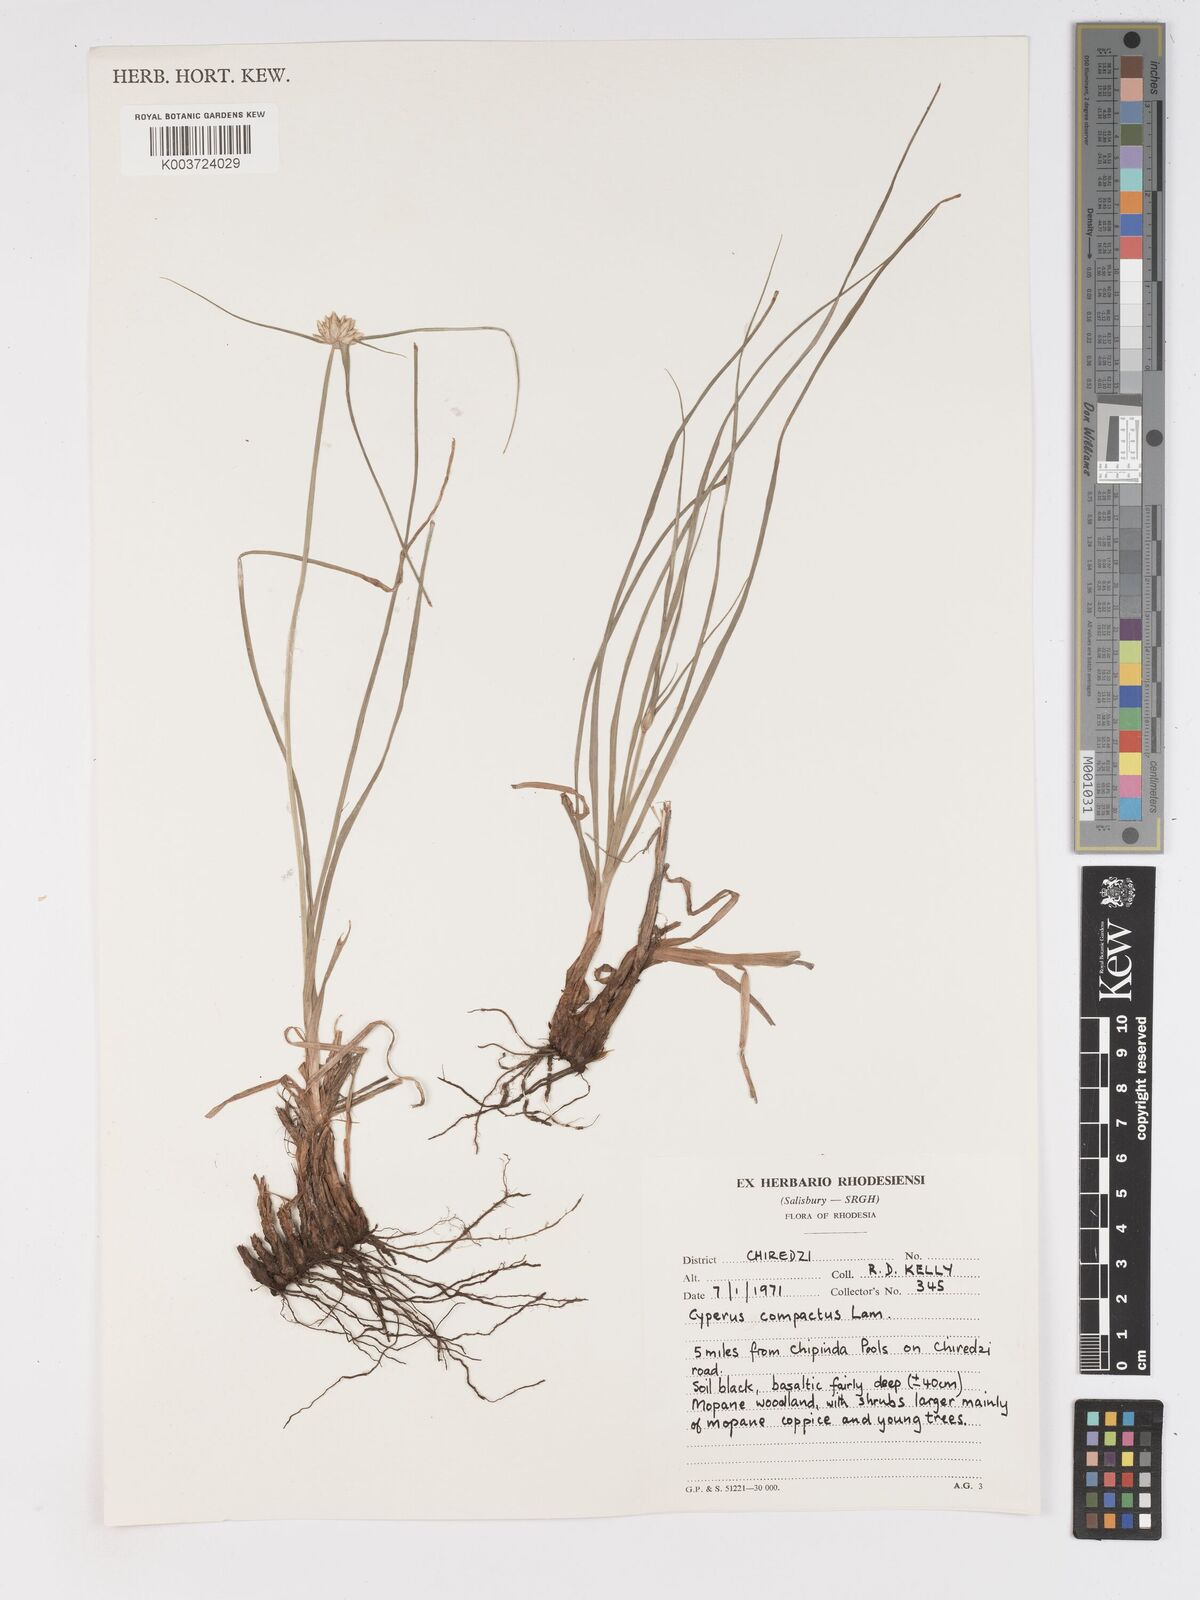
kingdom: Plantae
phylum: Tracheophyta
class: Liliopsida
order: Poales
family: Cyperaceae
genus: Cyperus
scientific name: Cyperus niveus
